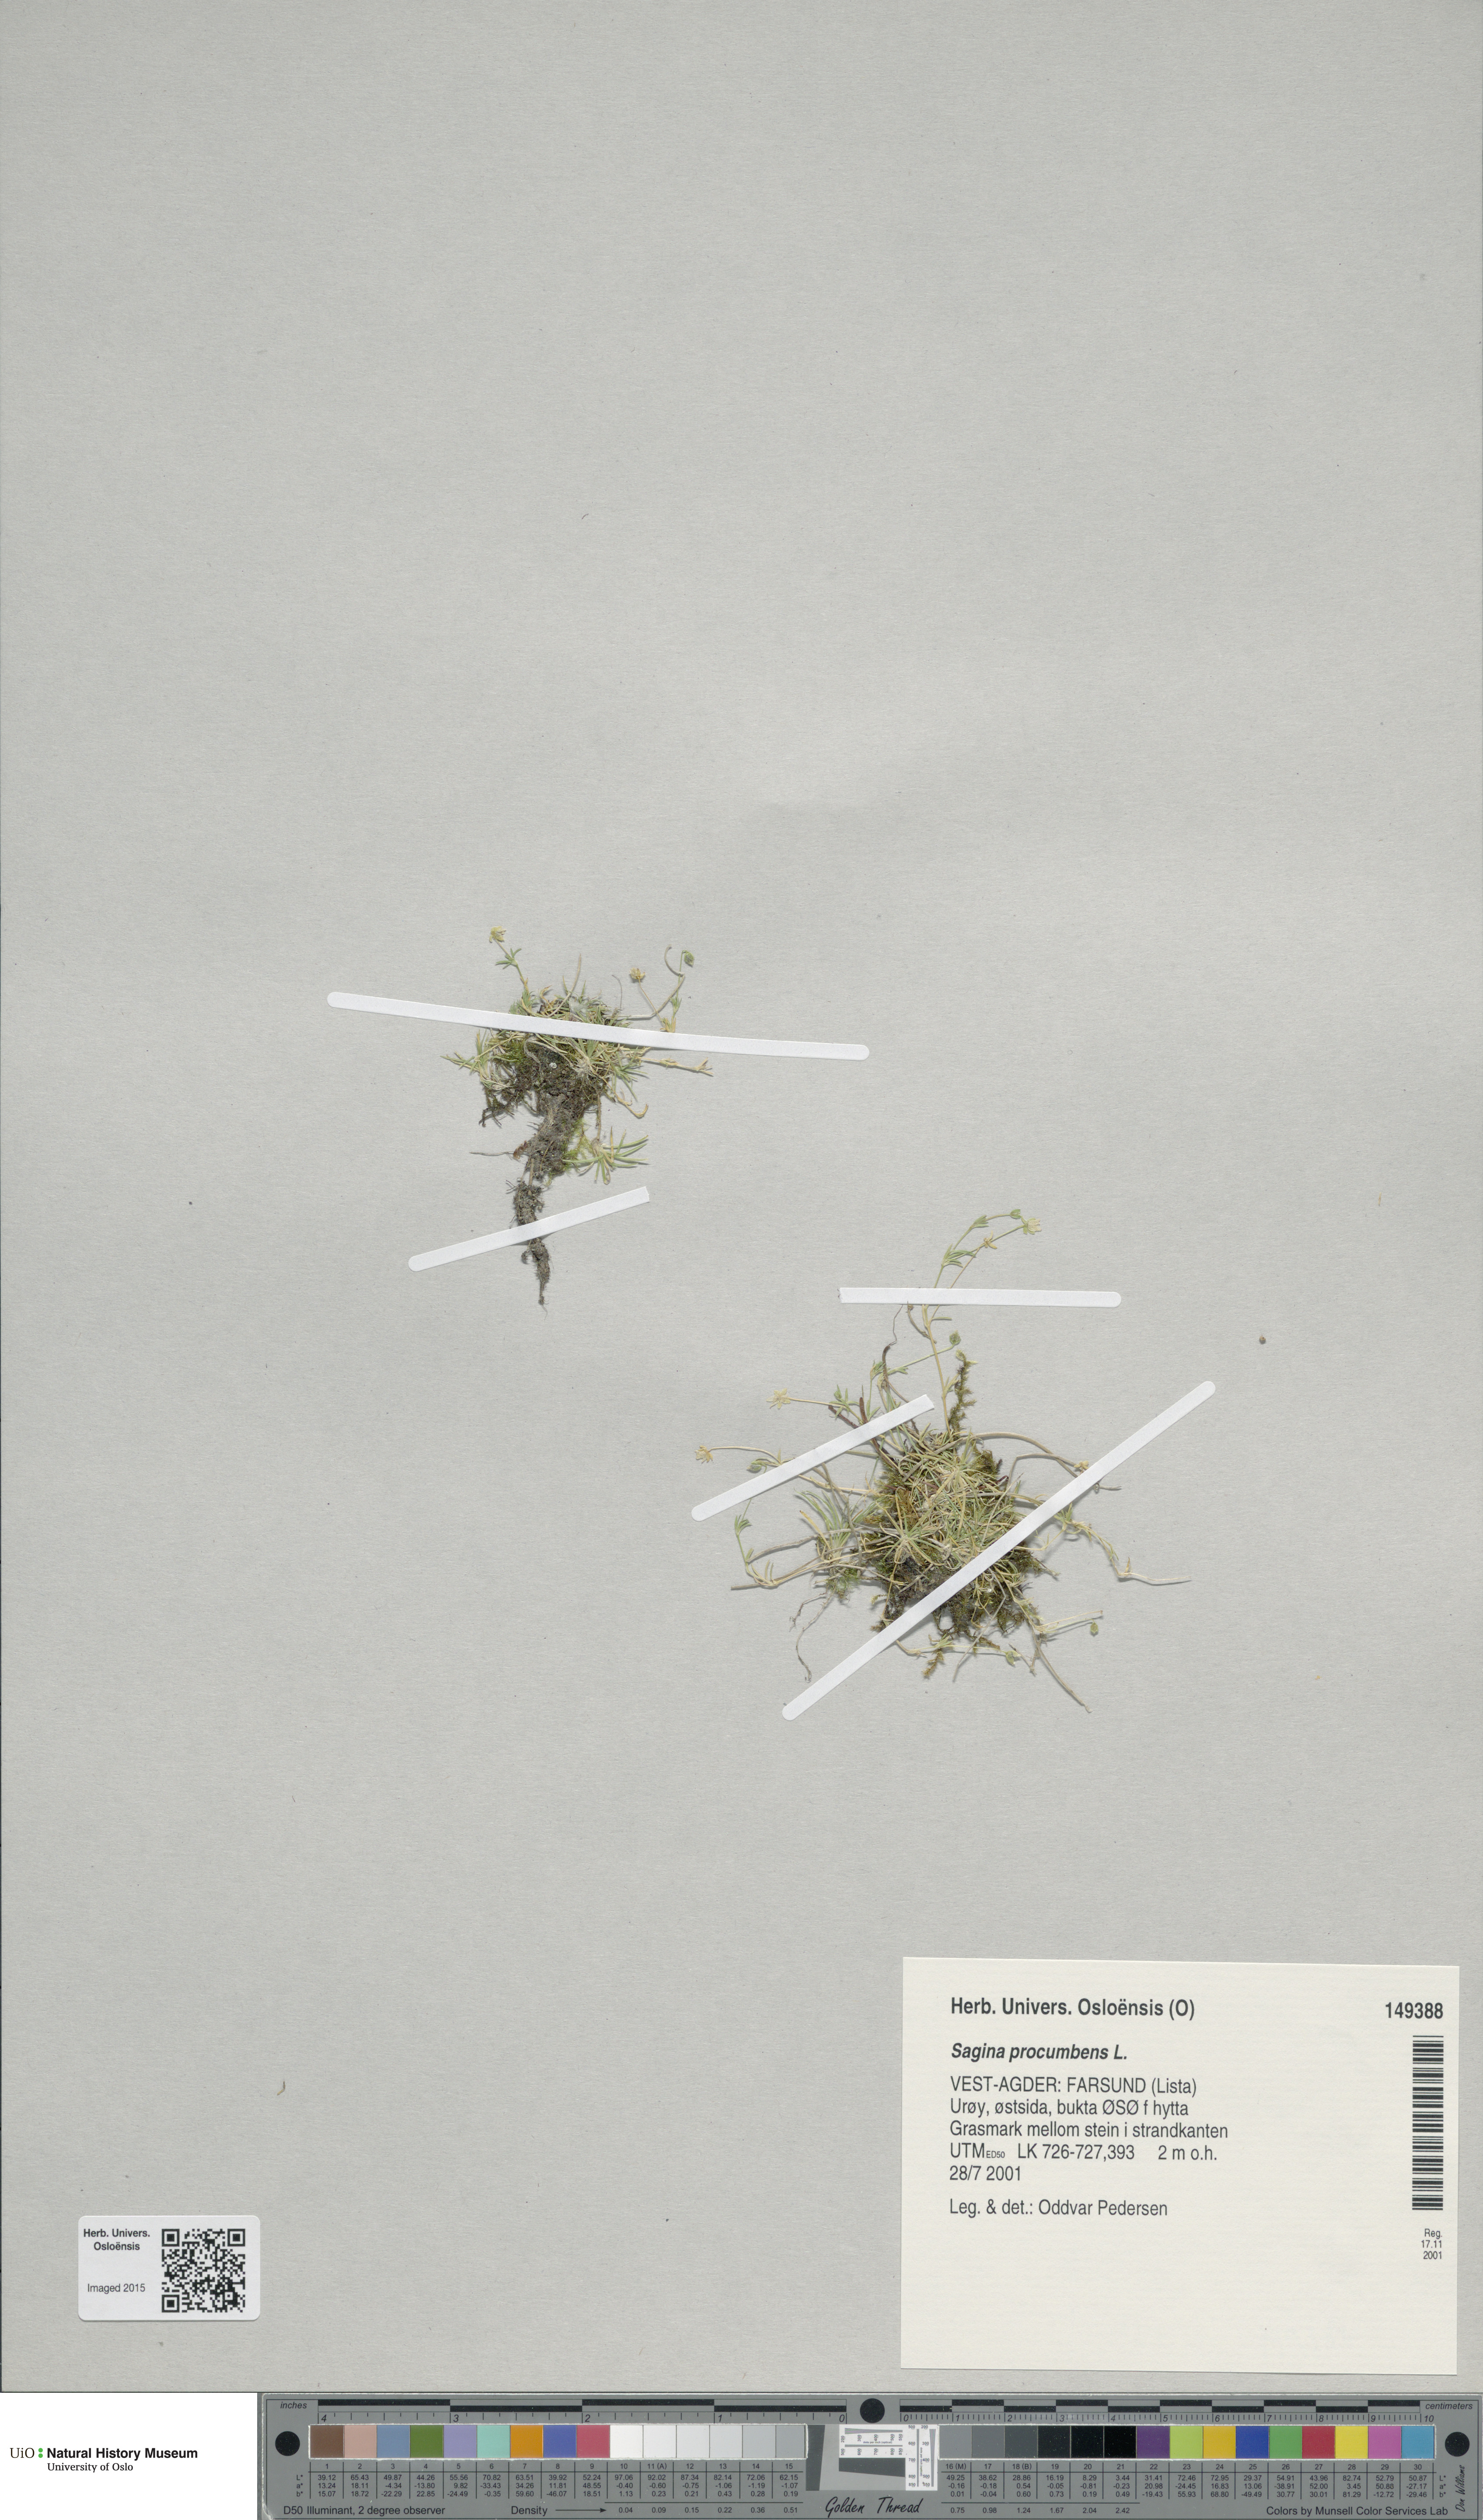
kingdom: Plantae
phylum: Tracheophyta
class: Magnoliopsida
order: Caryophyllales
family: Caryophyllaceae
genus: Sagina
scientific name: Sagina procumbens
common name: Procumbent pearlwort
